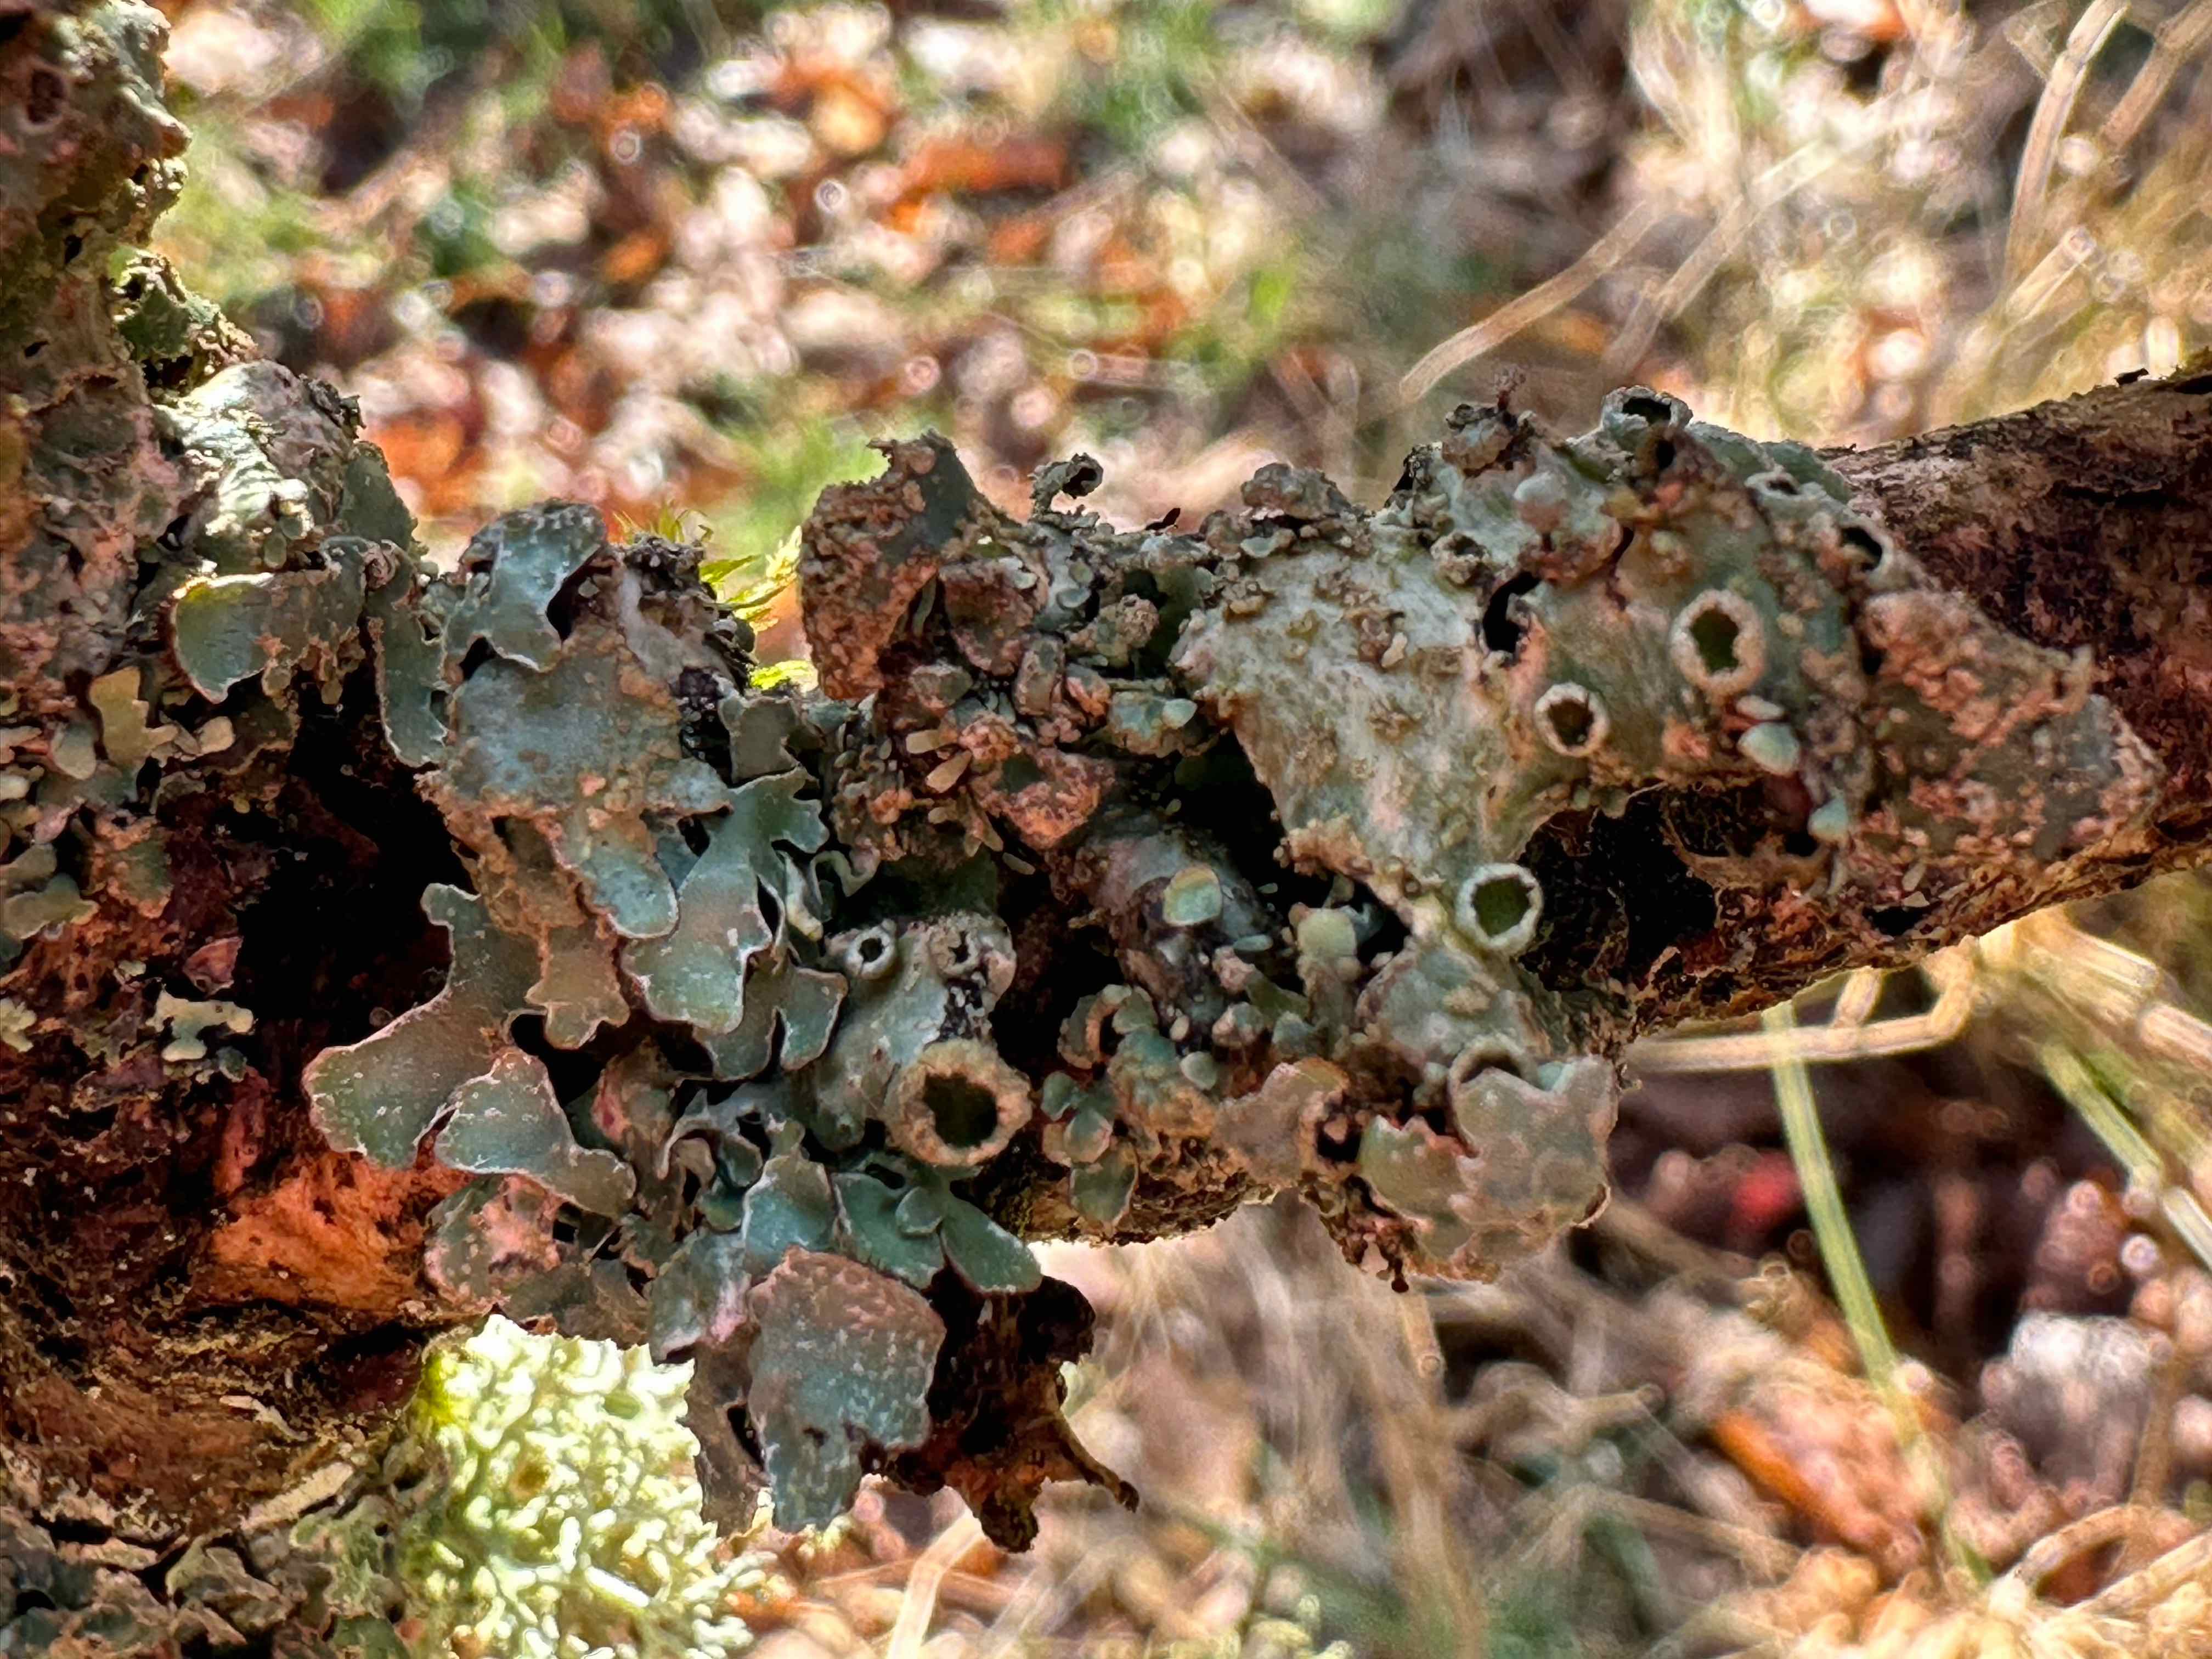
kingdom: Fungi
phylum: Ascomycota
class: Lecanoromycetes
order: Lecanorales
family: Parmeliaceae
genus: Parmelia
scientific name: Parmelia sulcata
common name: rynket skållav
